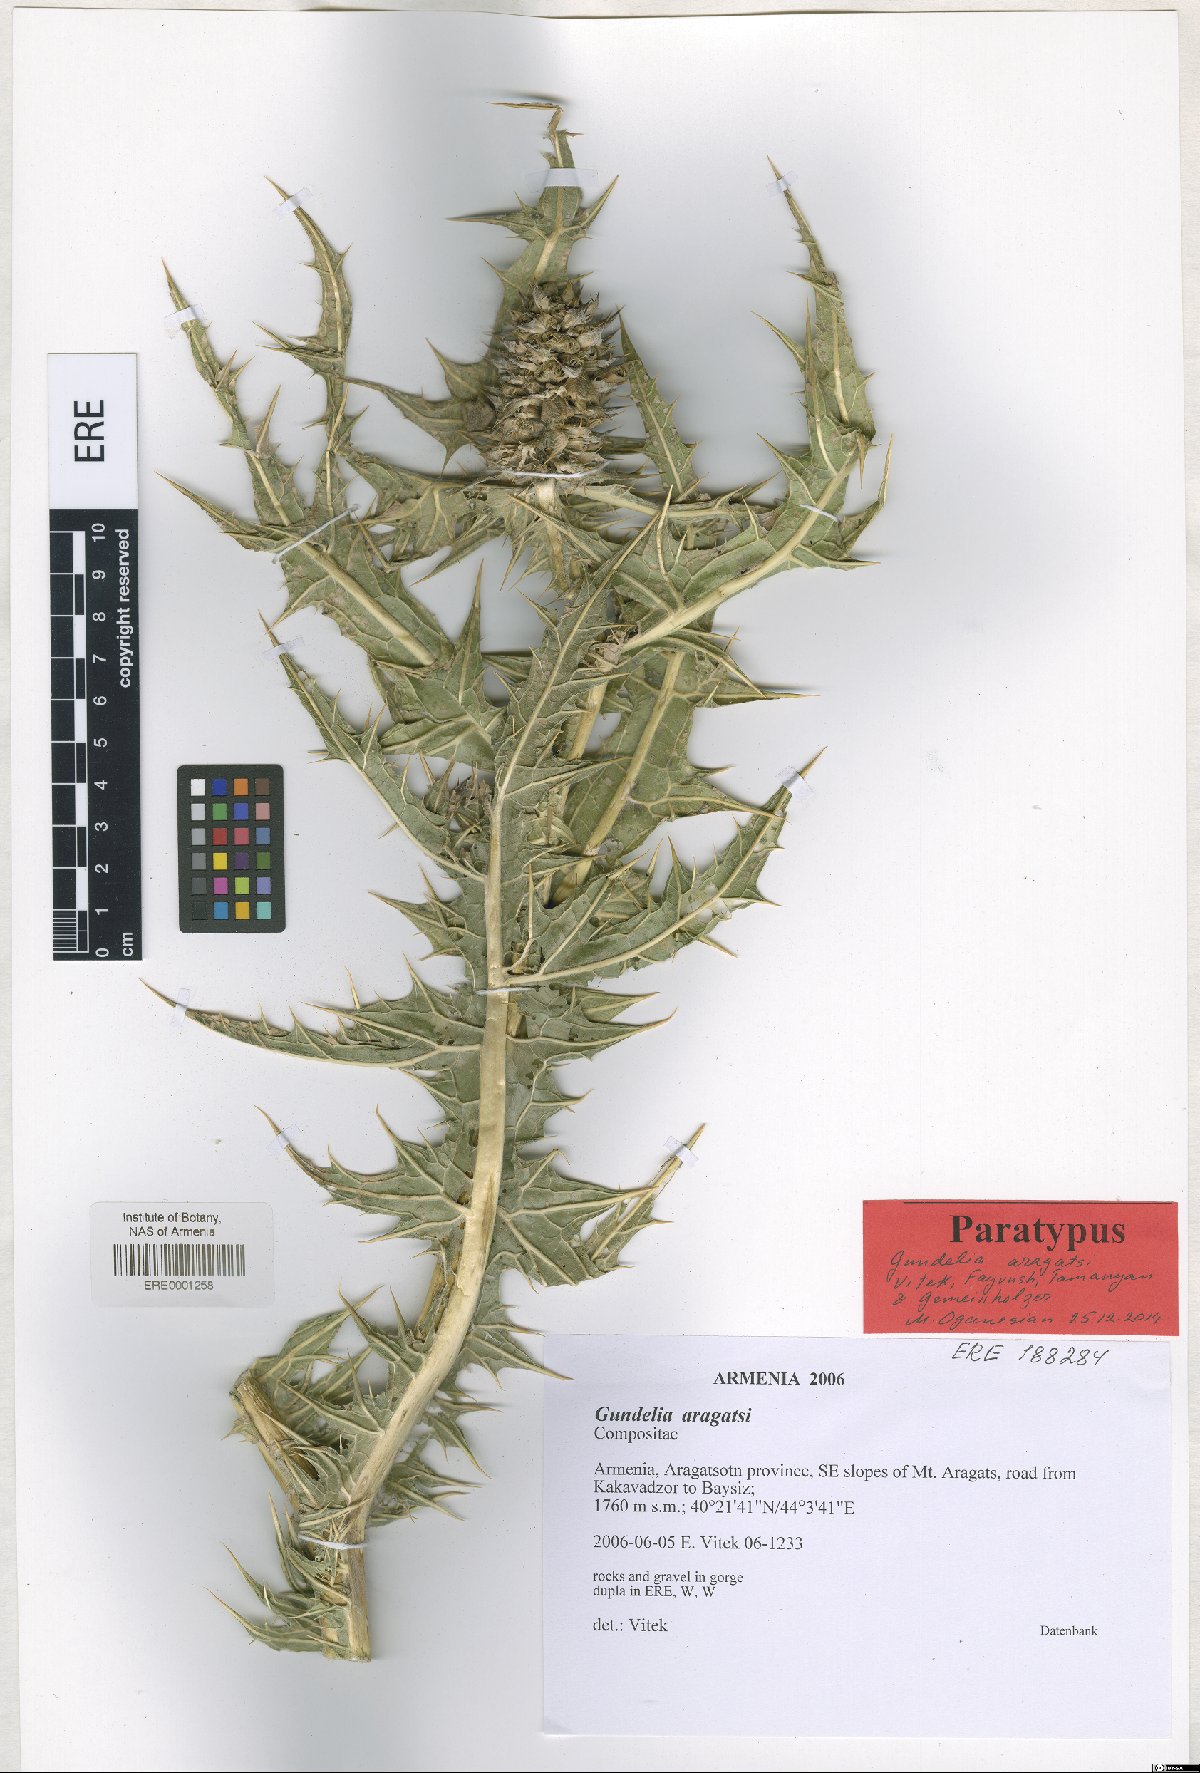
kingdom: Plantae
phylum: Tracheophyta
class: Magnoliopsida
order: Asterales
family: Asteraceae
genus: Gundelia
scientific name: Gundelia aragatsi
